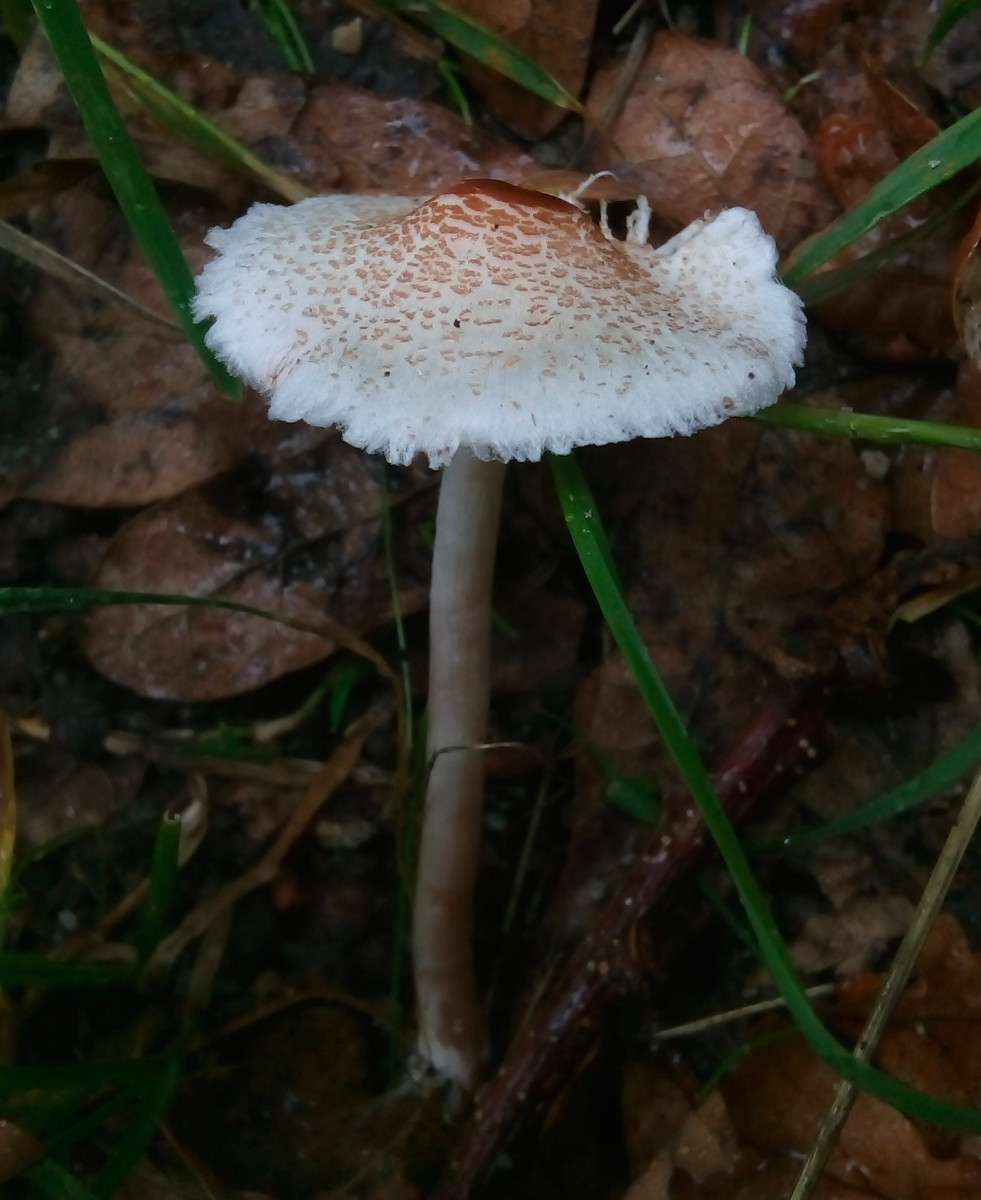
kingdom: Fungi
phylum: Basidiomycota
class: Agaricomycetes
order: Agaricales
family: Agaricaceae
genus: Lepiota
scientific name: Lepiota cristata
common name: stinkende parasolhat
